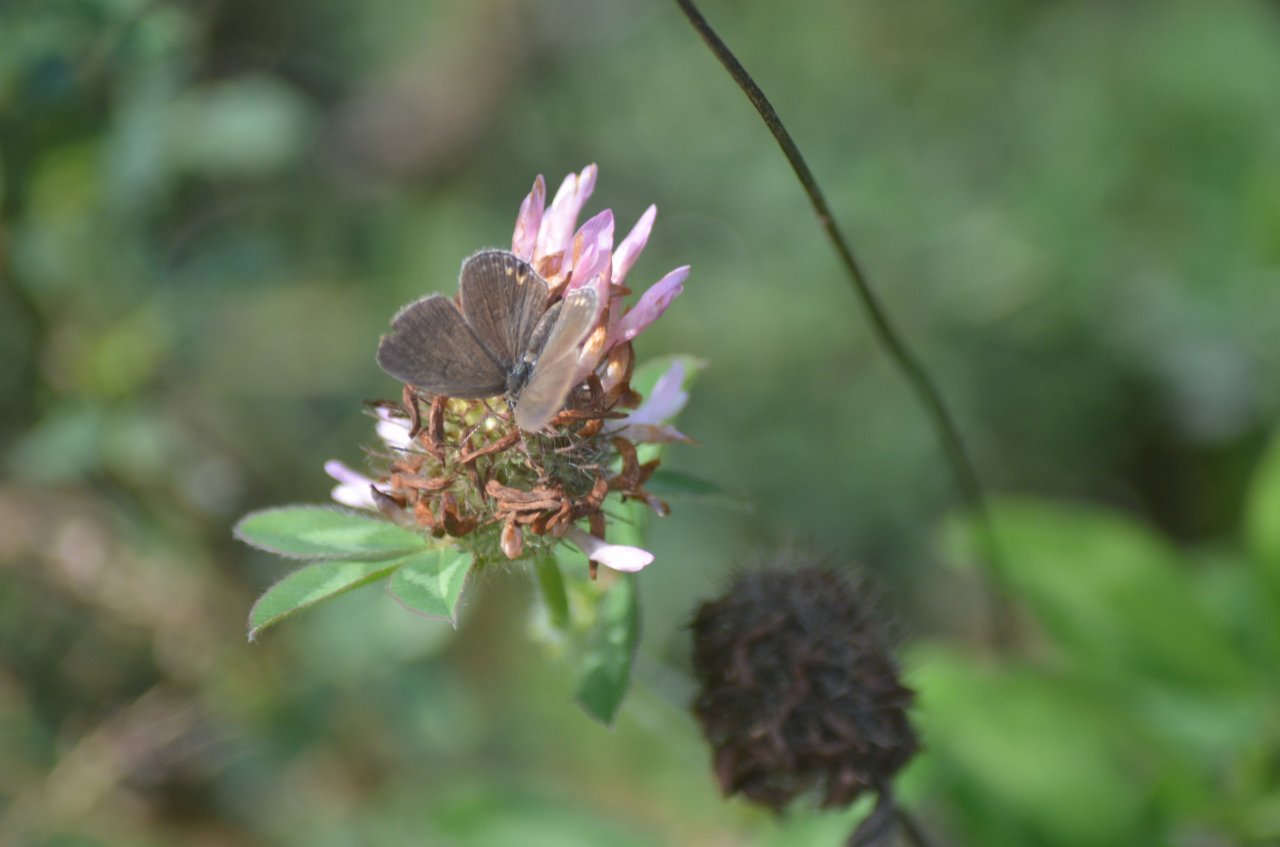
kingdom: Animalia
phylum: Arthropoda
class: Insecta
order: Lepidoptera
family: Lycaenidae
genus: Elkalyce
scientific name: Elkalyce comyntas
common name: Eastern Tailed-Blue
